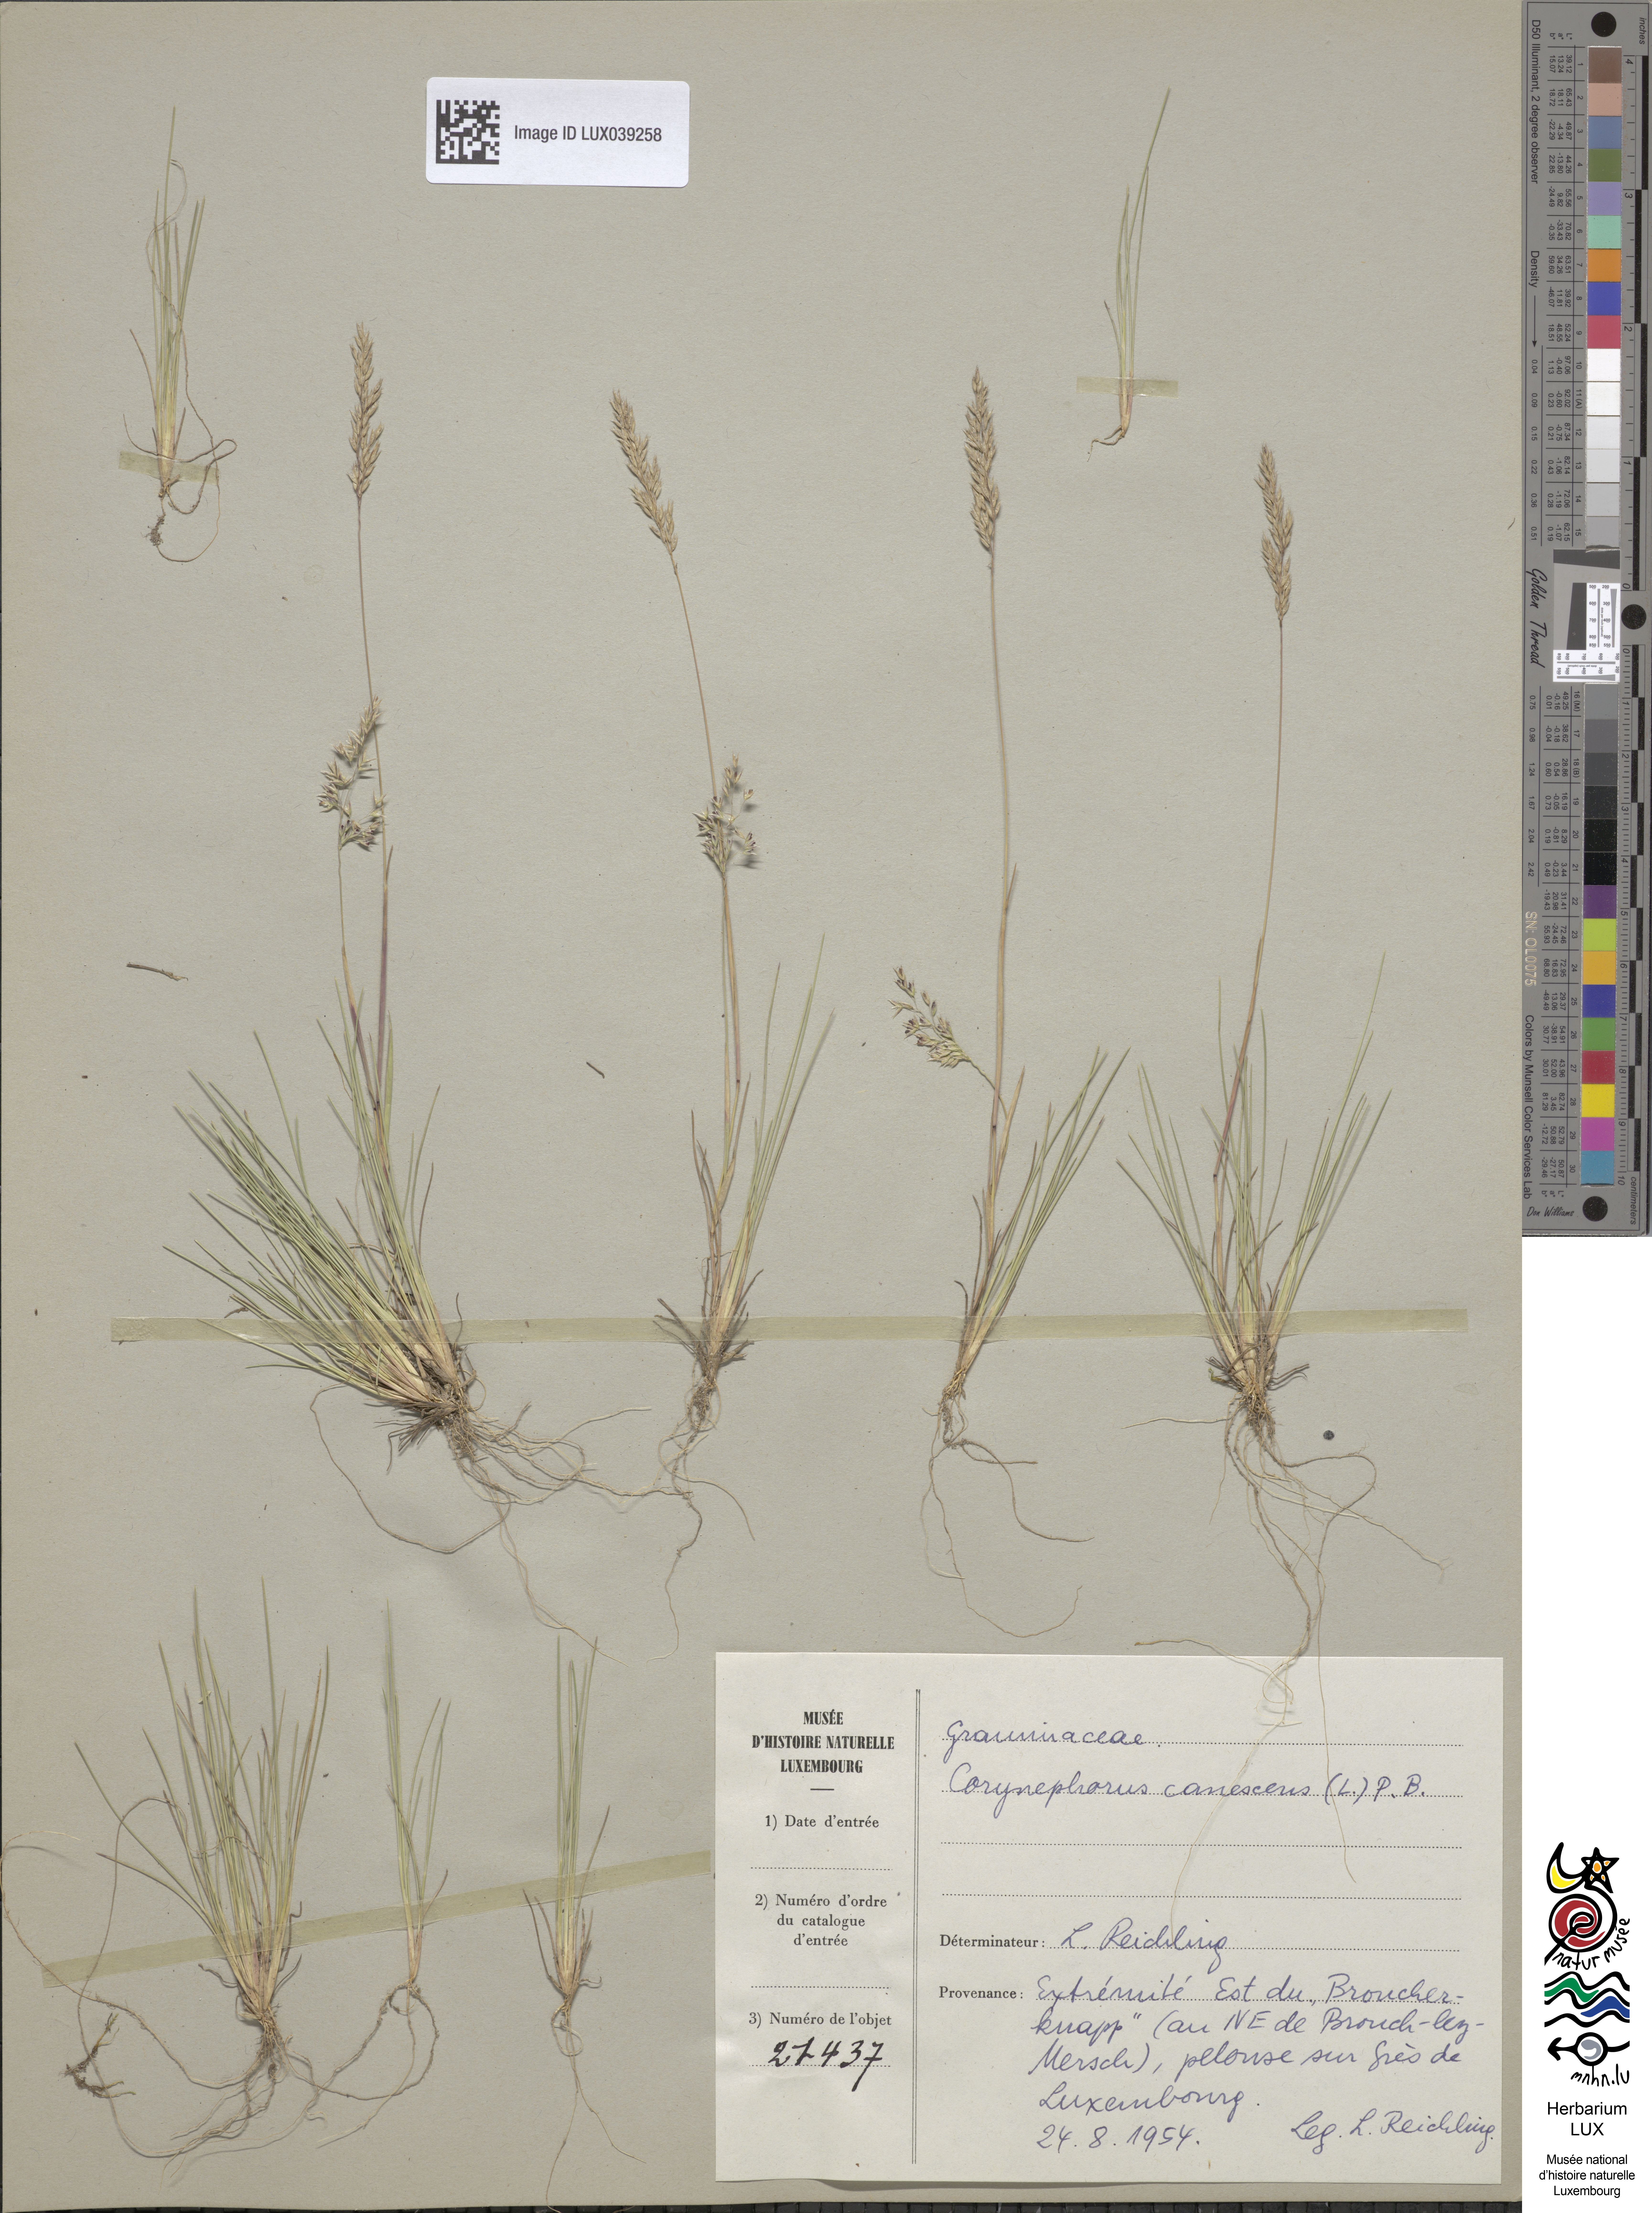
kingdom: Plantae
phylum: Tracheophyta
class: Liliopsida
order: Poales
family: Poaceae
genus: Corynephorus
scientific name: Corynephorus canescens
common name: Grey hair-grass
